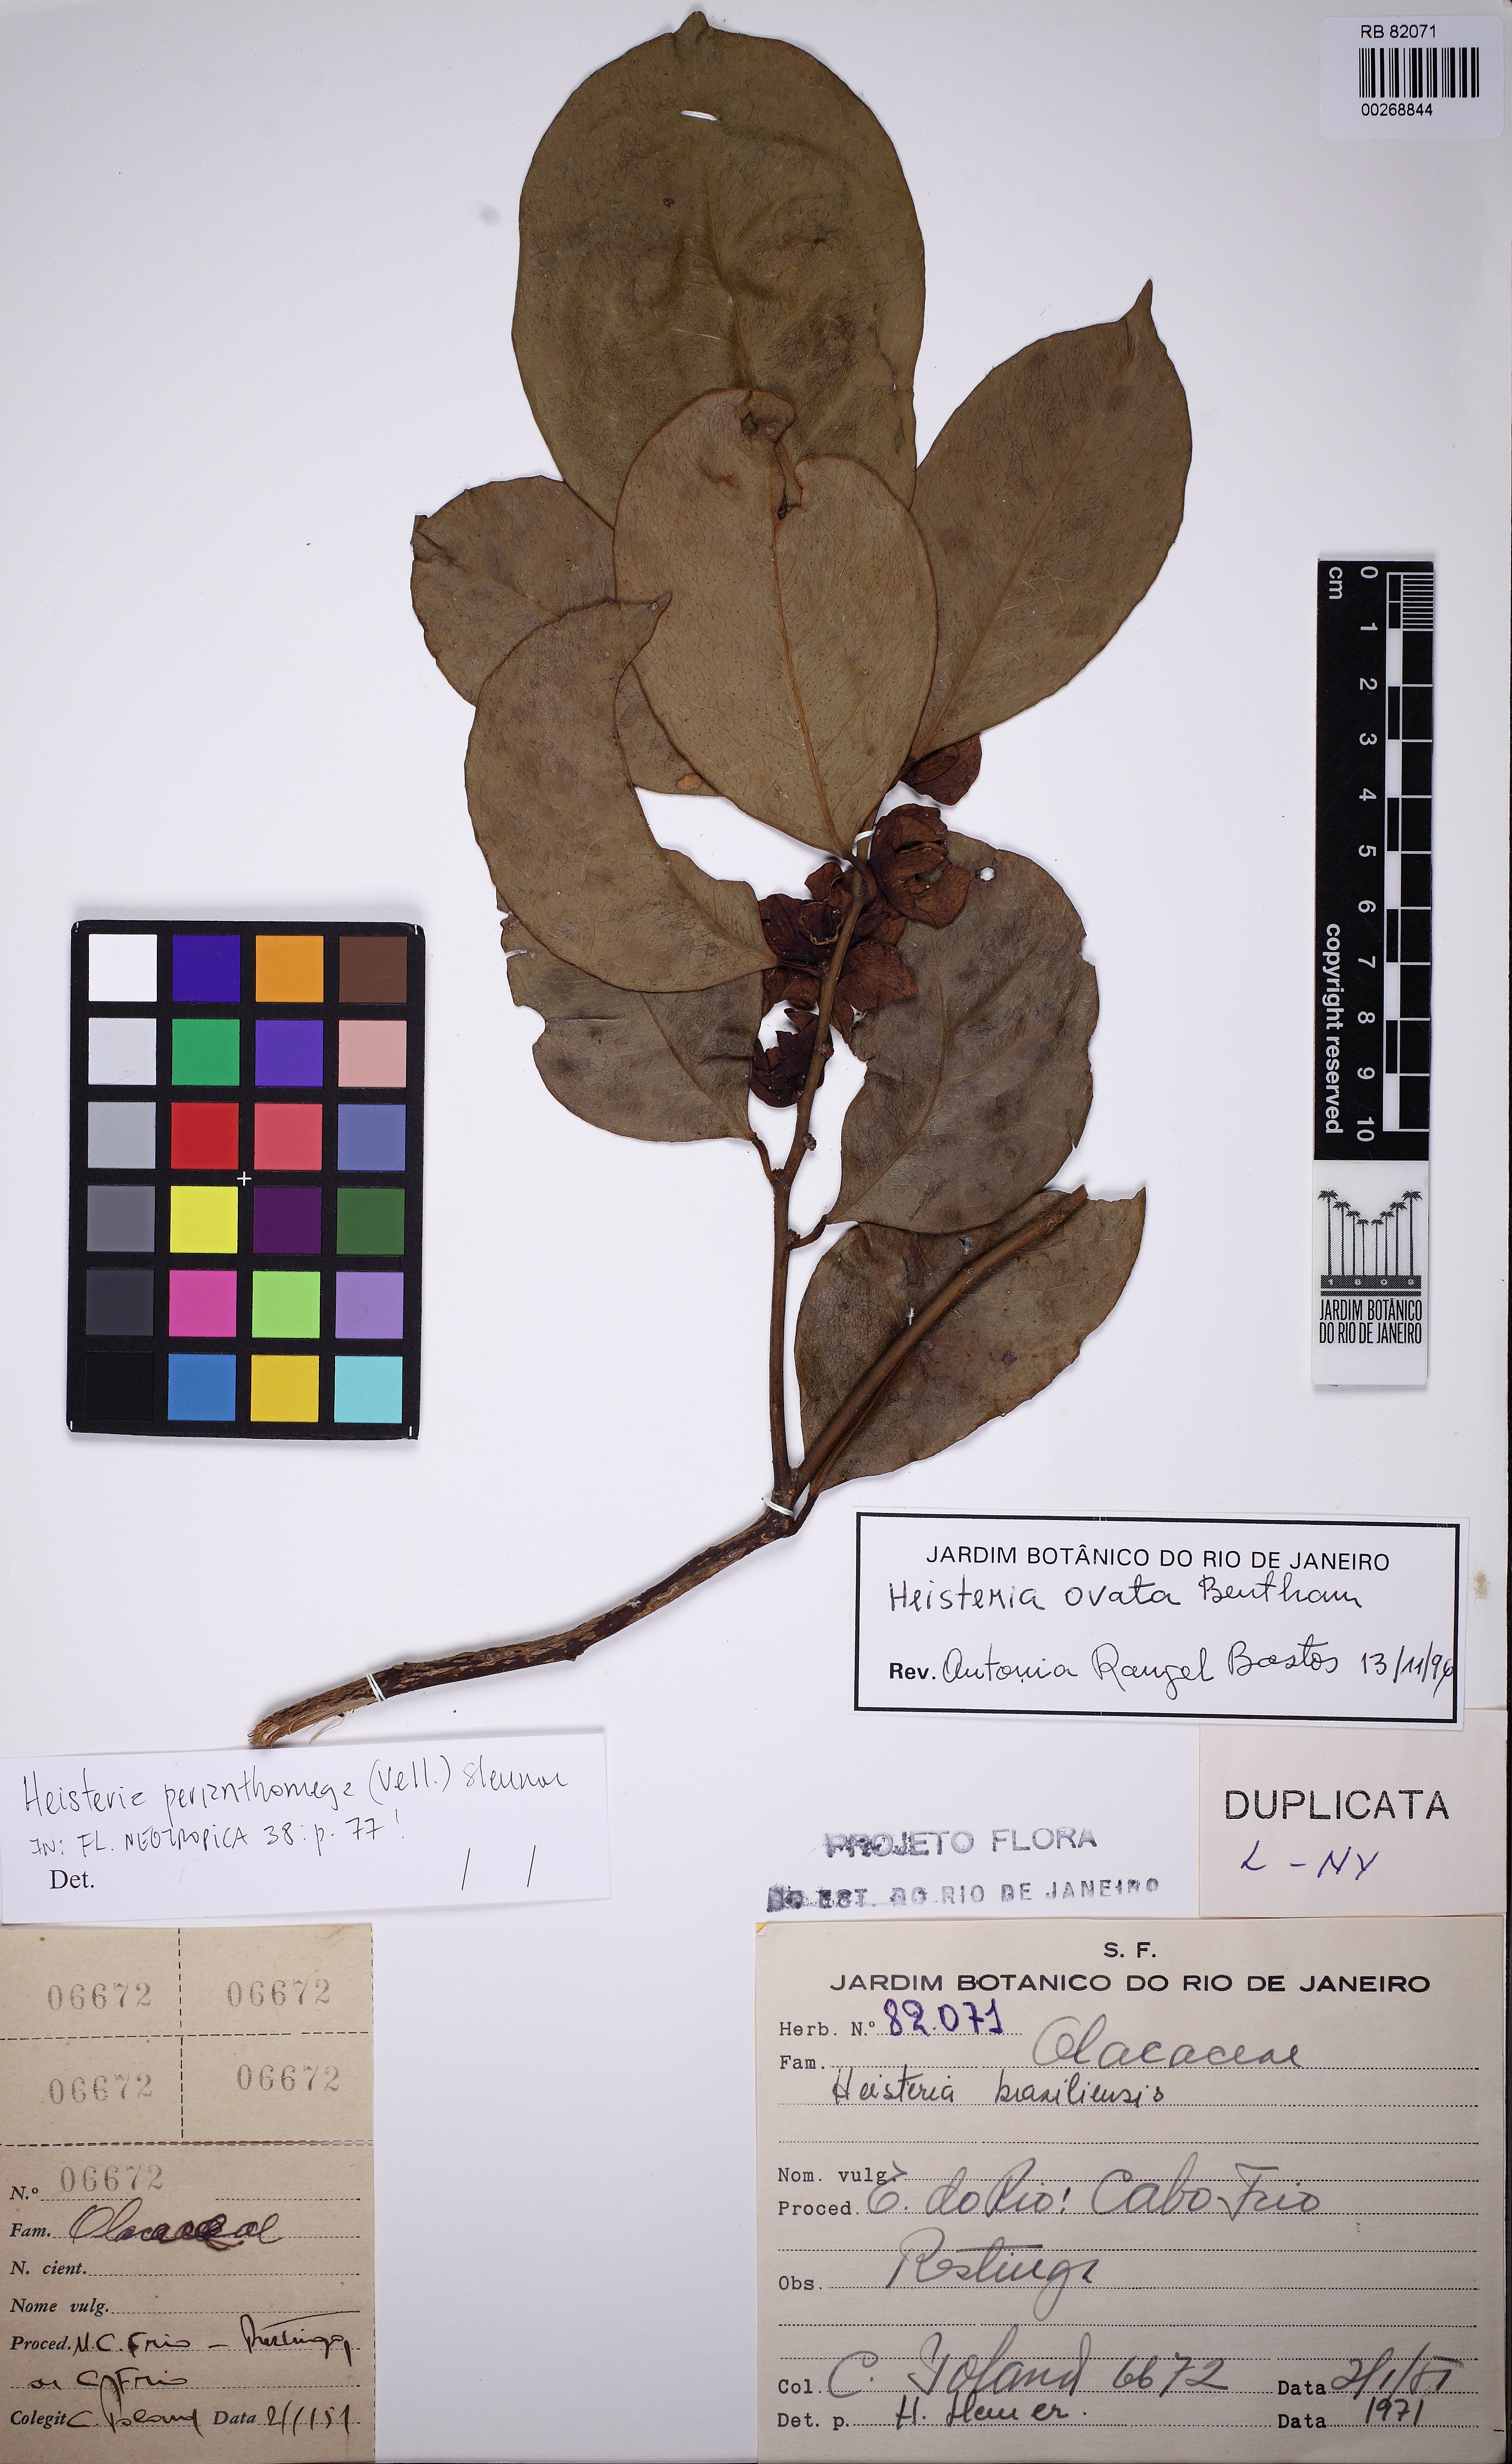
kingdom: Plantae
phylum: Tracheophyta
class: Magnoliopsida
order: Santalales
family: Erythropalaceae
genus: Heisteria
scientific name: Heisteria ovata
